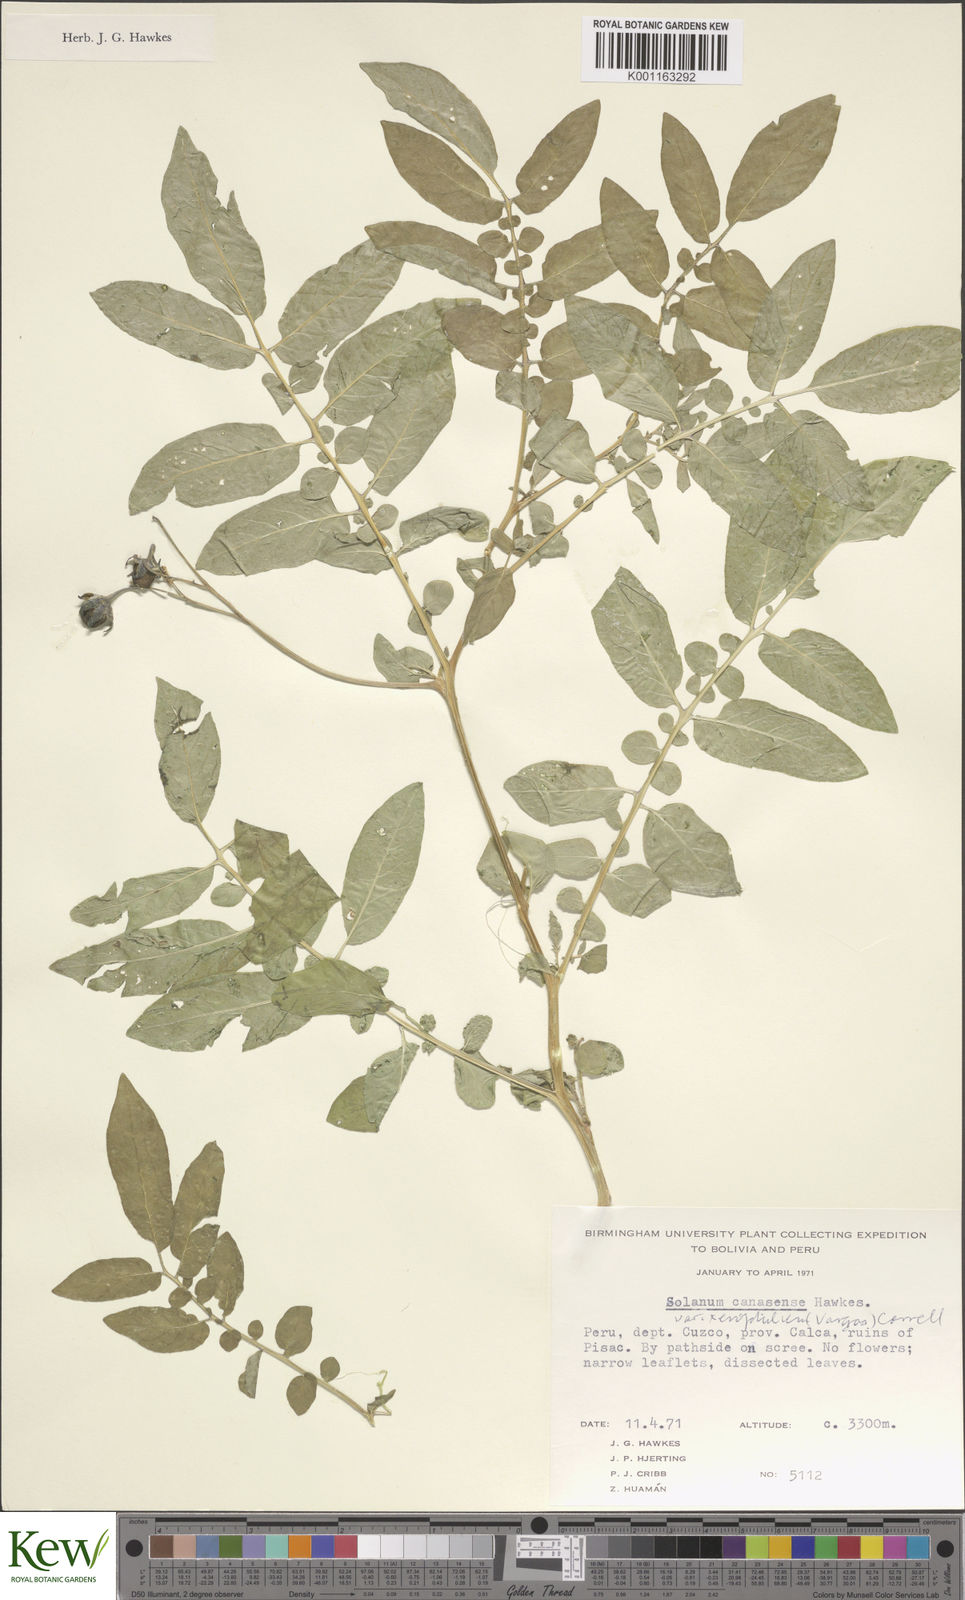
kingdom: Plantae
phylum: Tracheophyta
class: Magnoliopsida
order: Solanales
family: Solanaceae
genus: Solanum
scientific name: Solanum candolleanum
